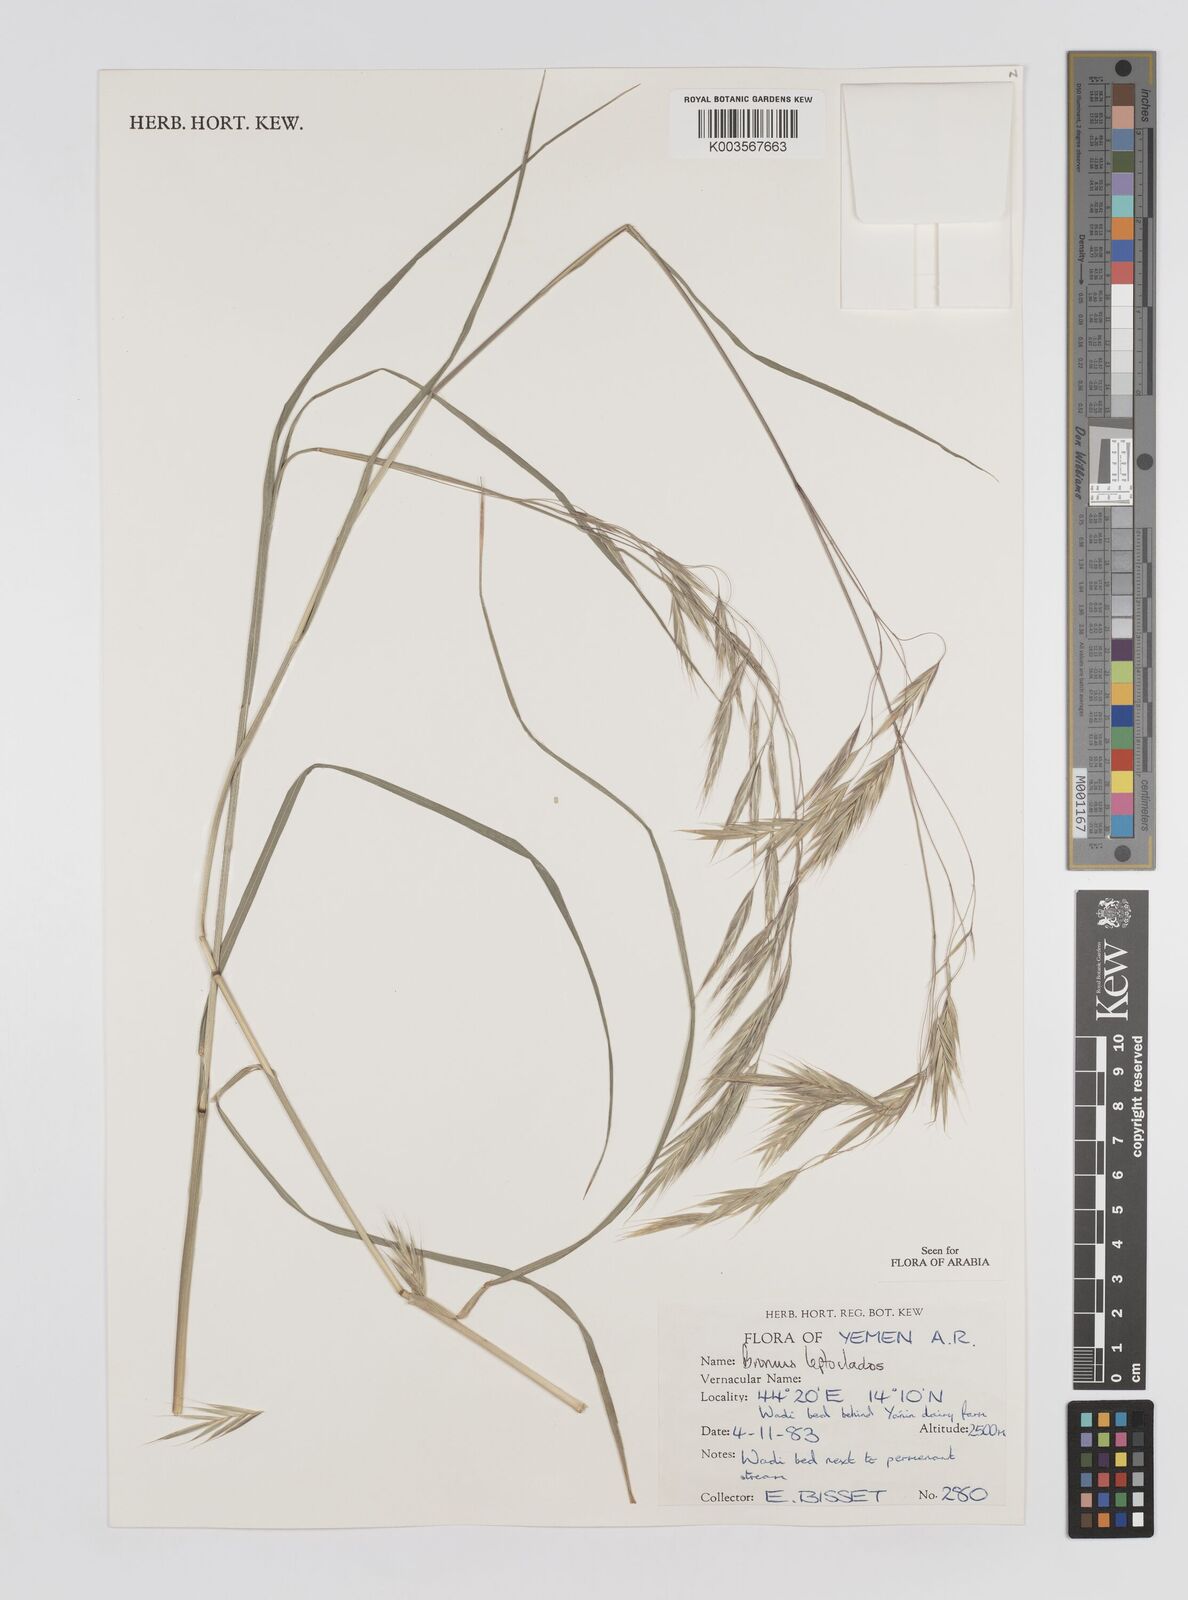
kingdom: Plantae
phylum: Tracheophyta
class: Liliopsida
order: Poales
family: Poaceae
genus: Bromus
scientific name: Bromus leptoclados
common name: Mountain bromegrass
